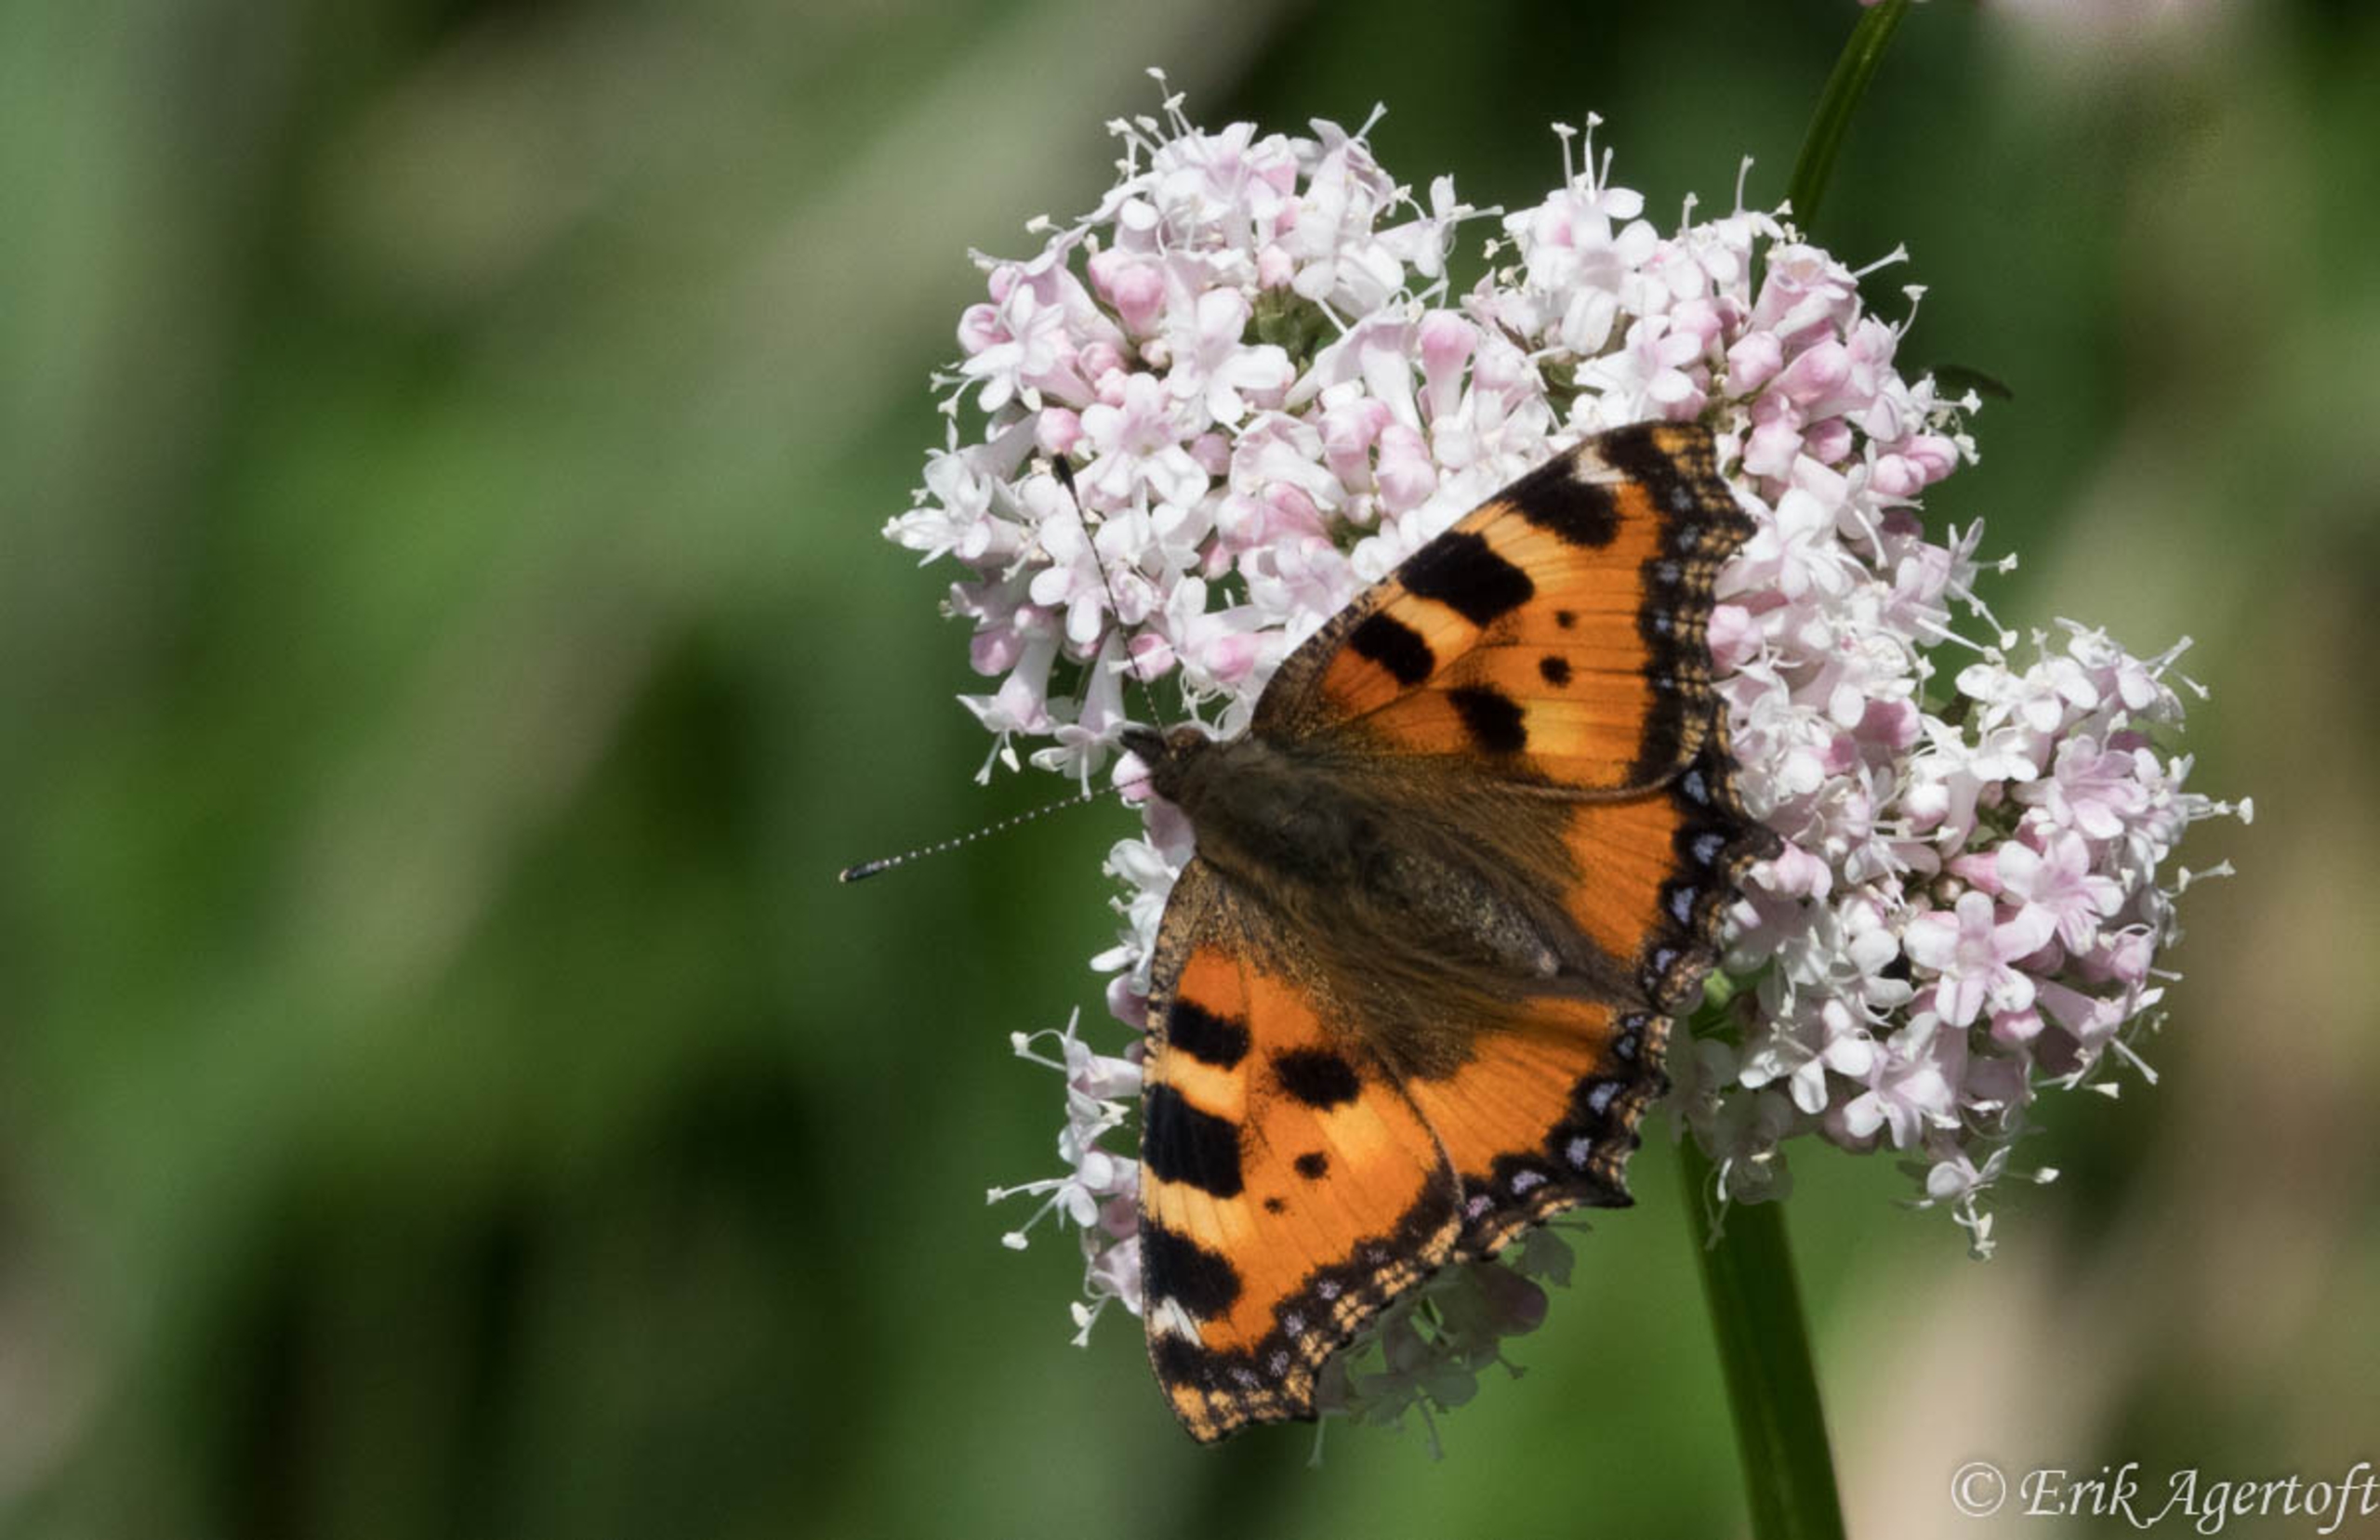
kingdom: Animalia
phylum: Arthropoda
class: Insecta
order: Lepidoptera
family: Nymphalidae
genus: Aglais
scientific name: Aglais urticae
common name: Nældens takvinge
